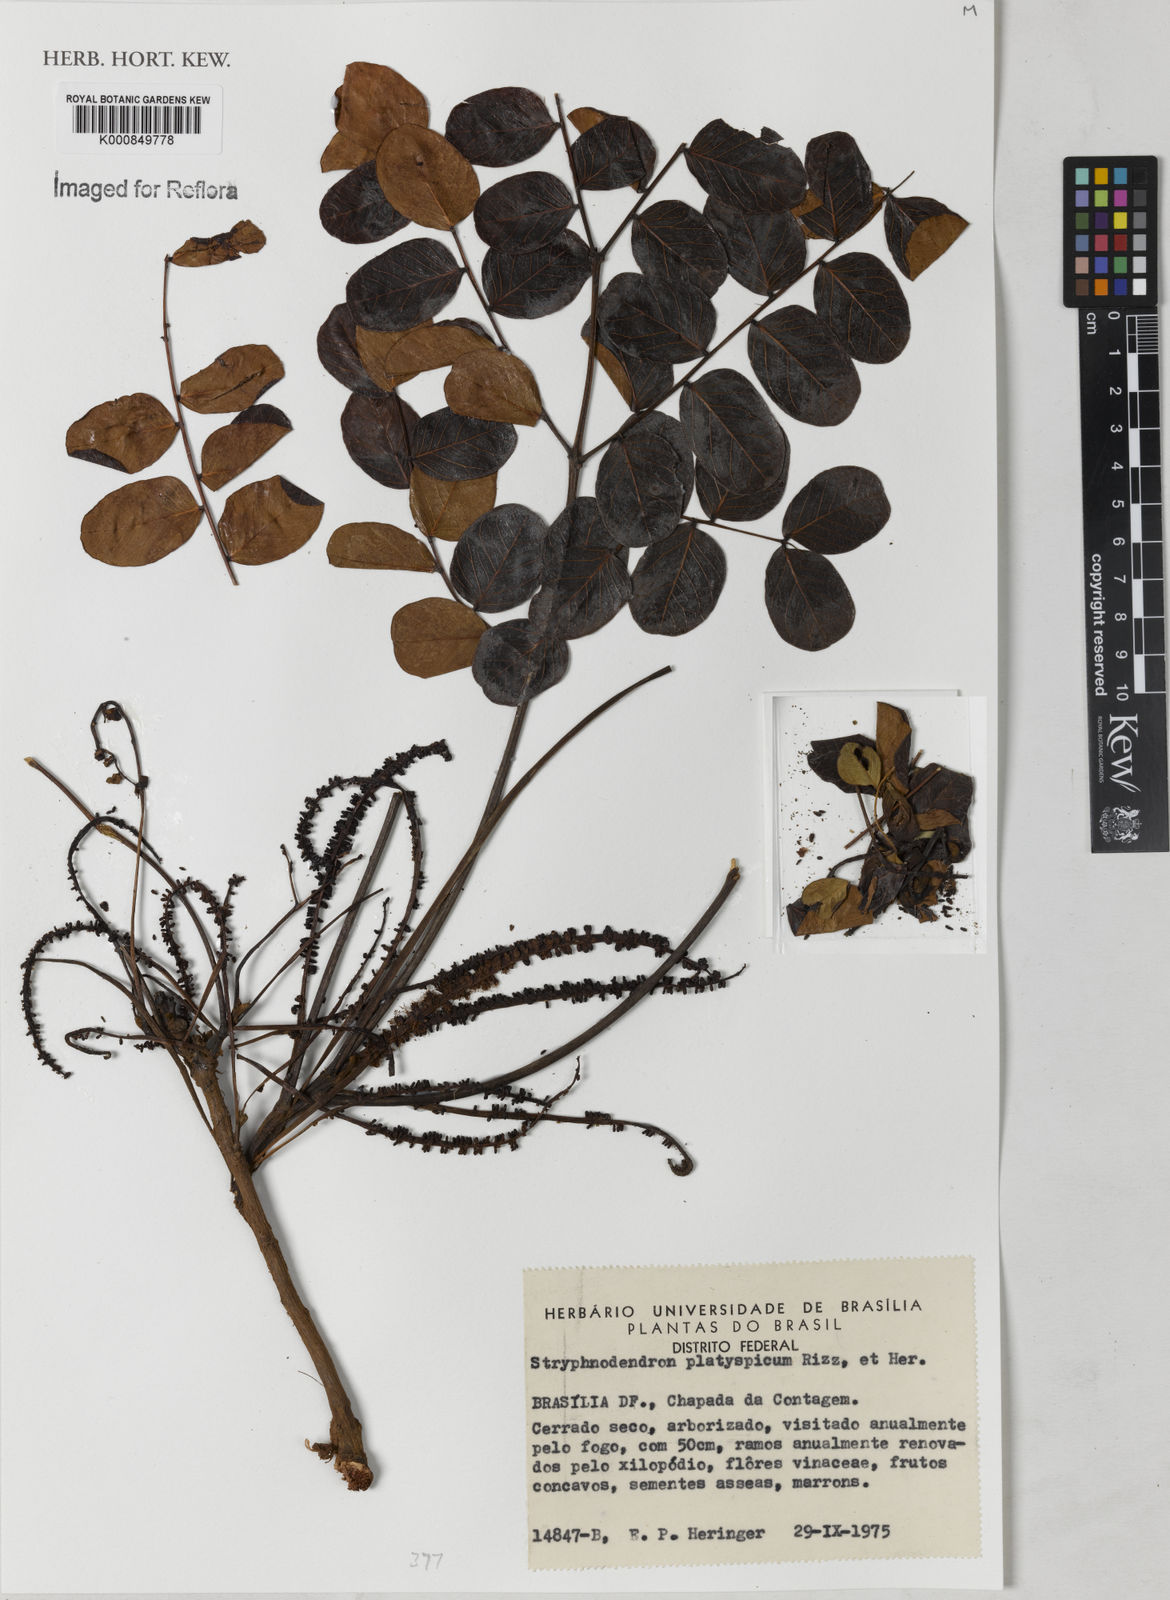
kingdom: Plantae
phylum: Tracheophyta
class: Magnoliopsida
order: Fabales
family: Fabaceae
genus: Stryphnodendron
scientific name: Stryphnodendron
